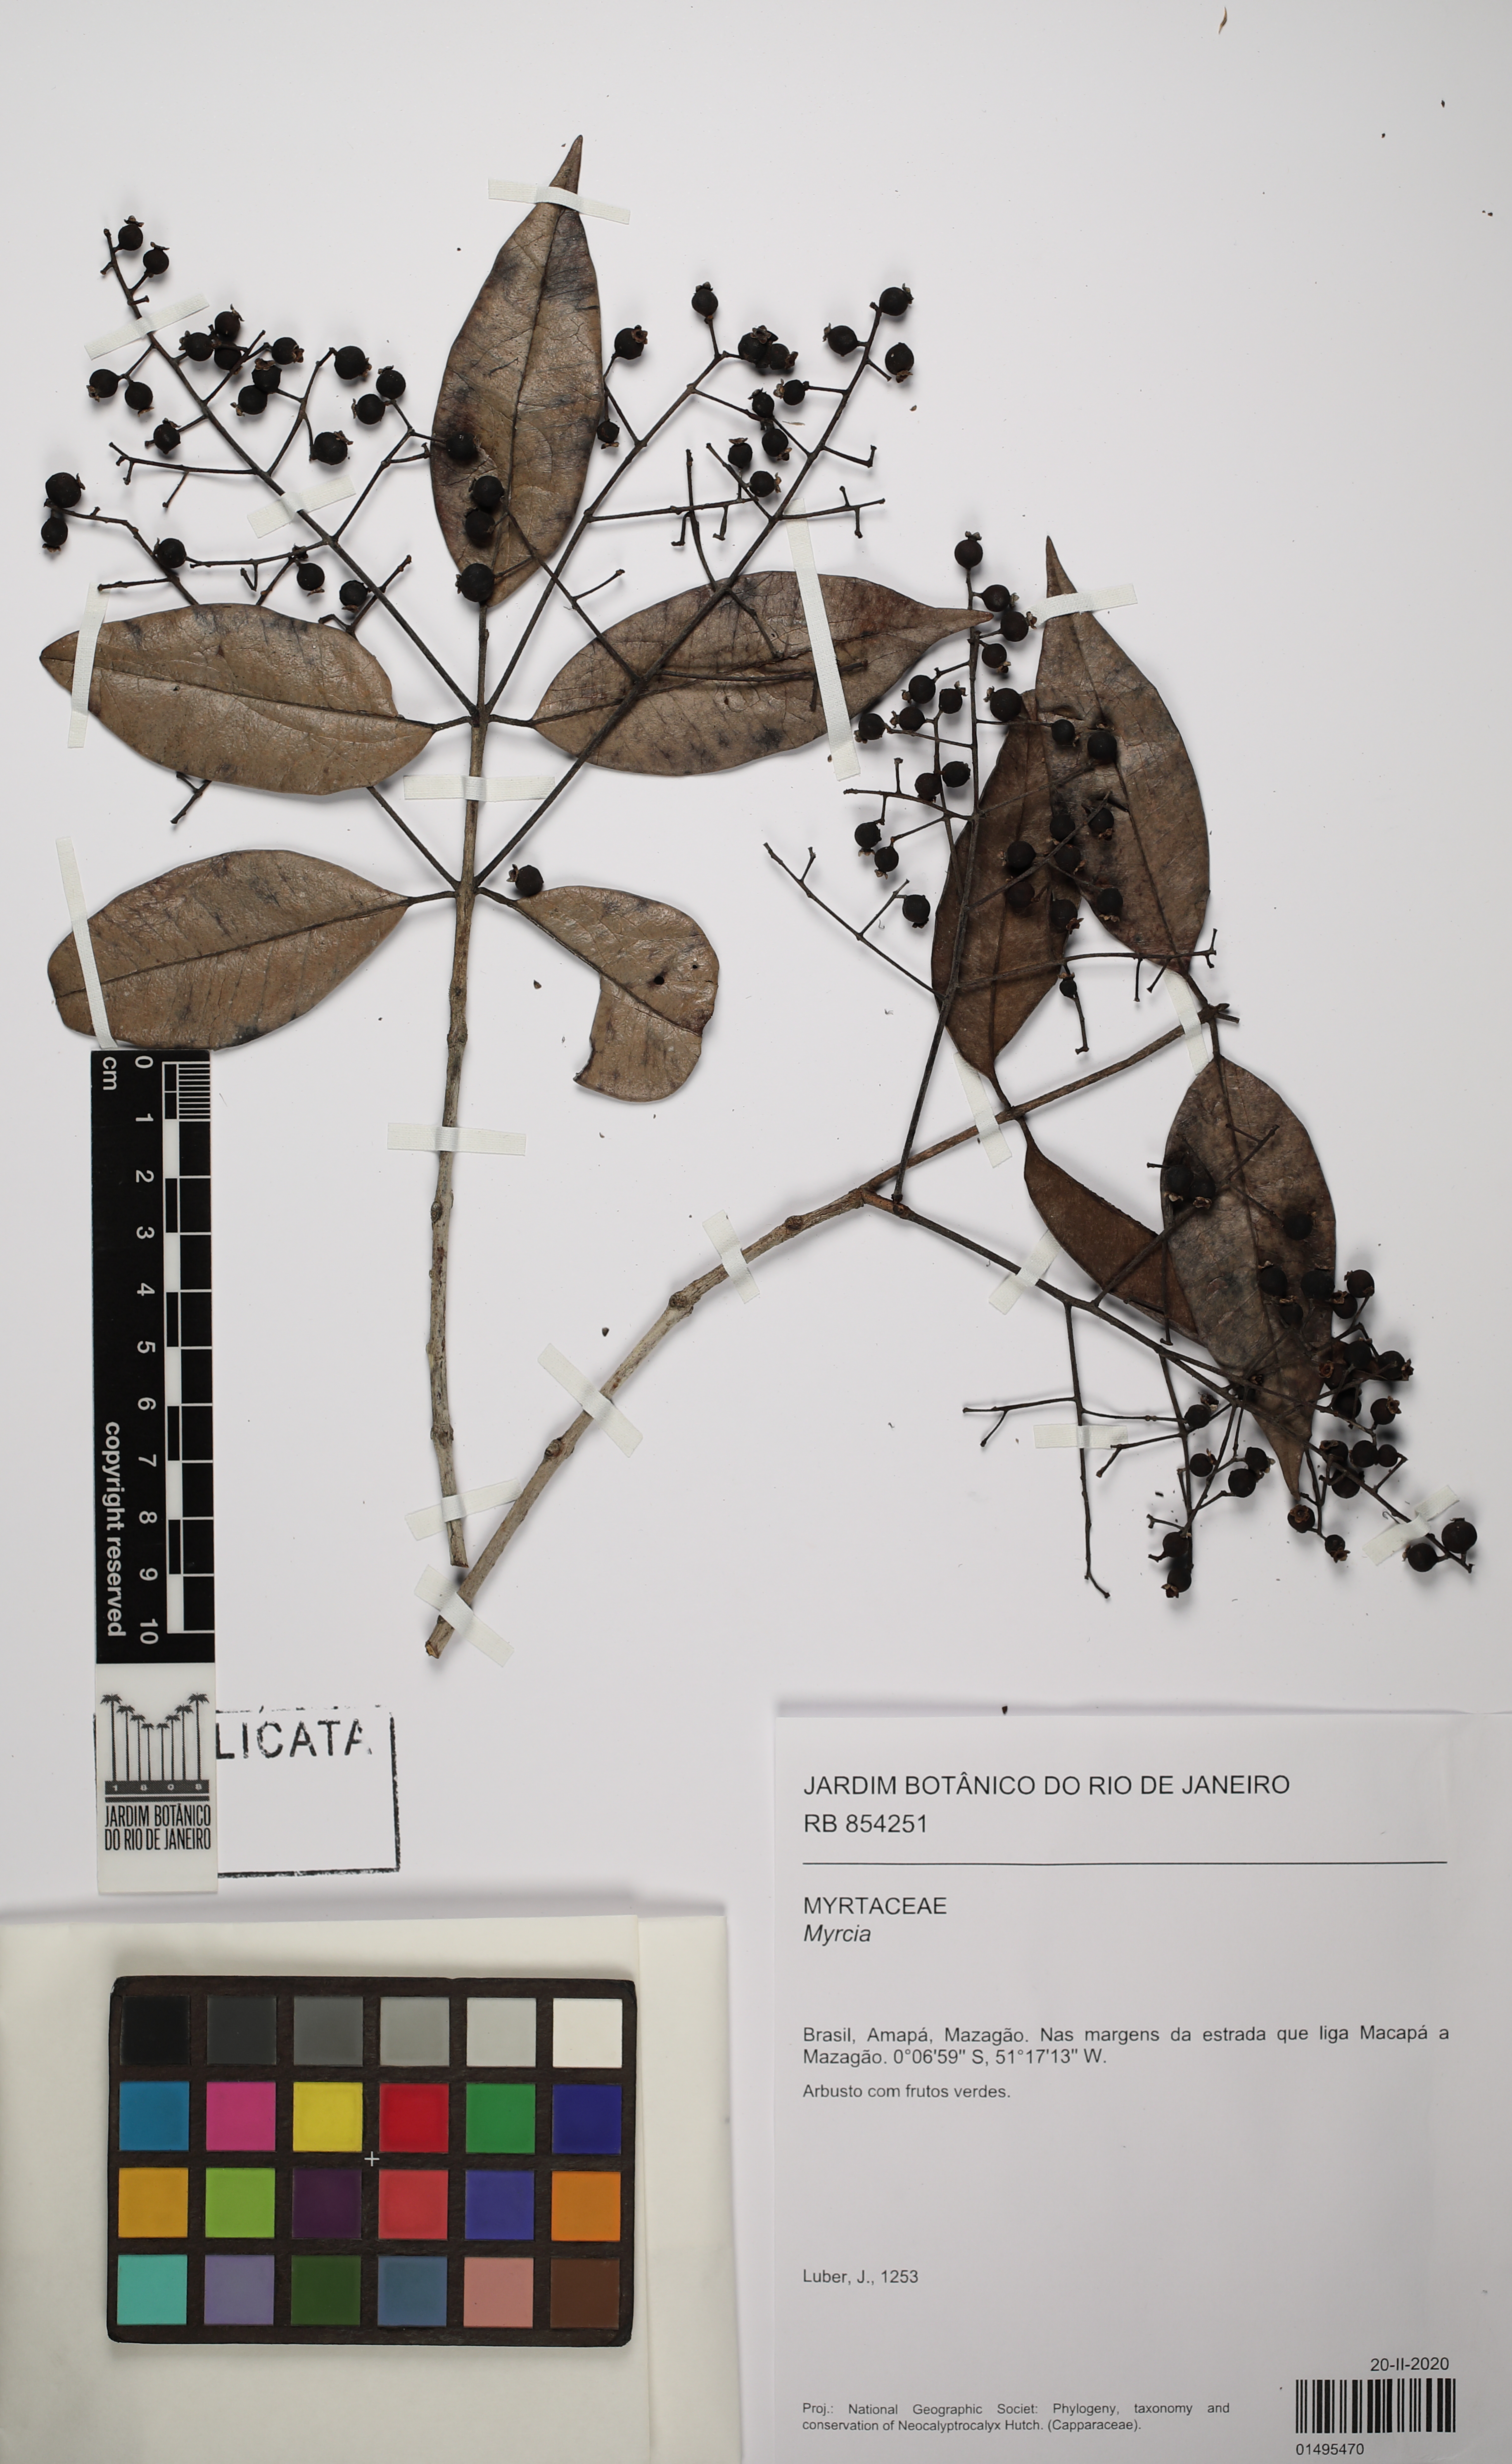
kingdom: Plantae
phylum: Tracheophyta
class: Magnoliopsida
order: Myrtales
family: Myrtaceae
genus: Myrcia
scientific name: Myrcia
